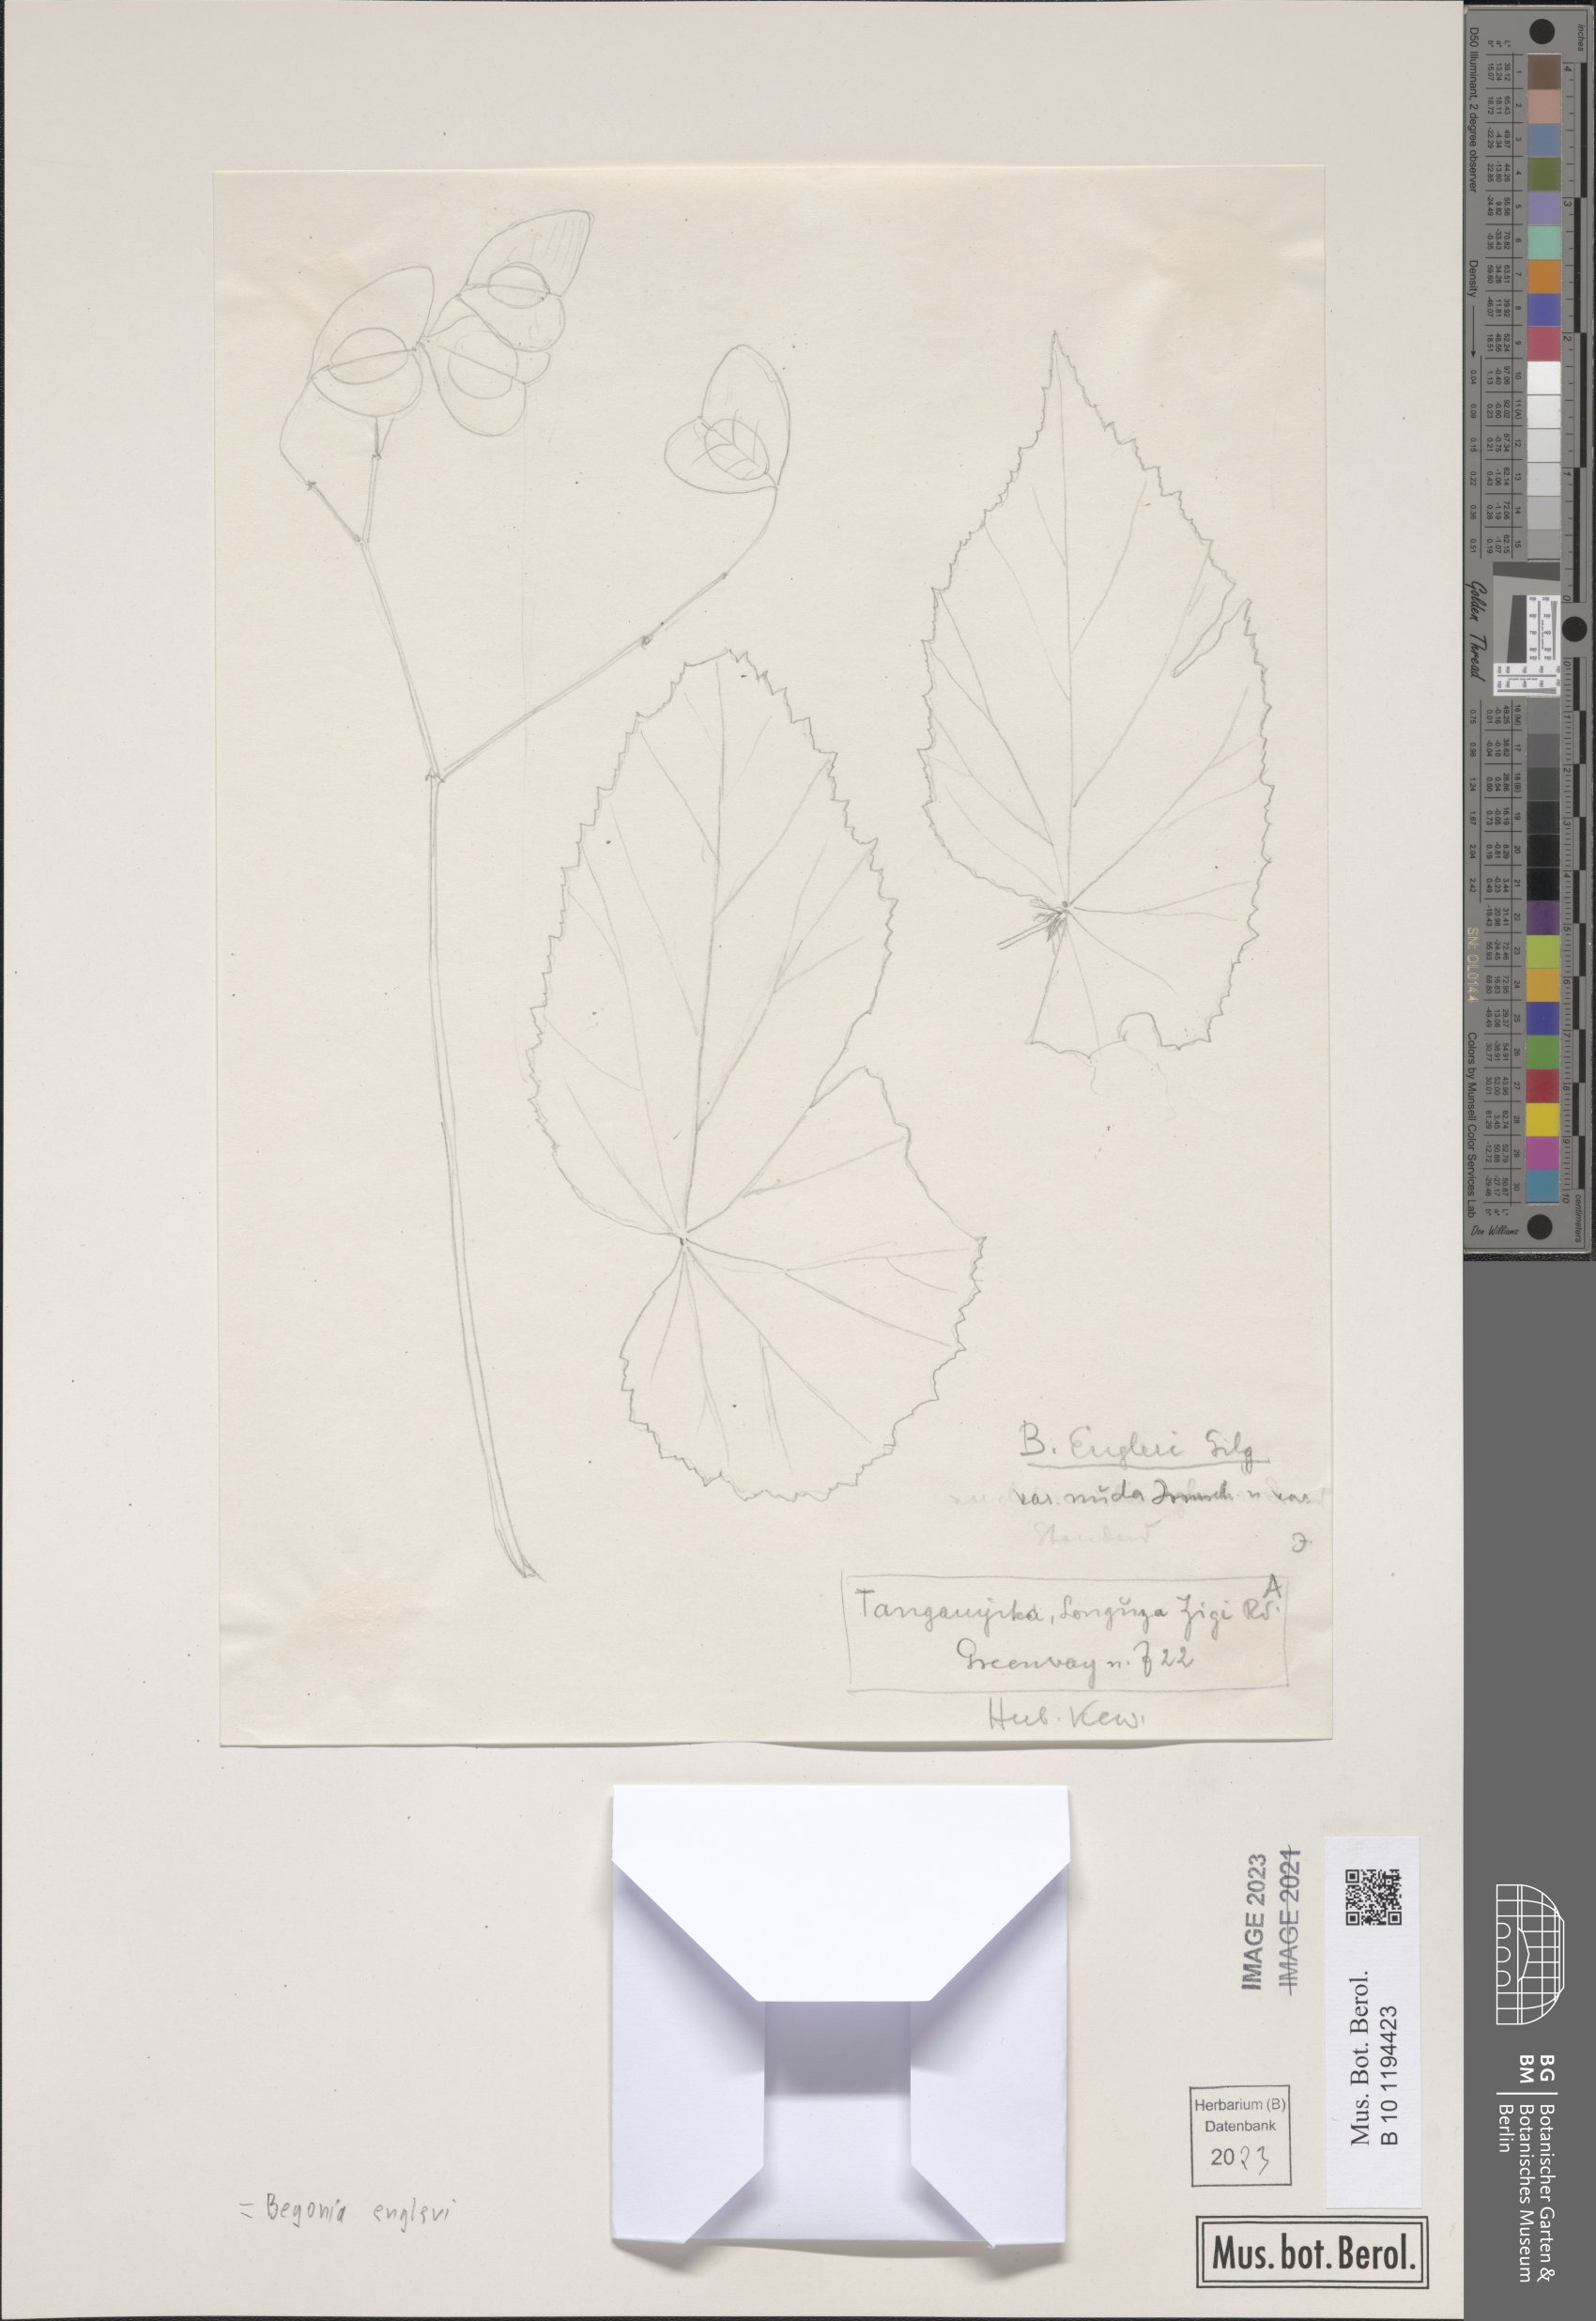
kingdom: Plantae
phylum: Tracheophyta
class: Magnoliopsida
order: Cucurbitales
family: Begoniaceae
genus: Begonia
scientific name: Begonia engleri
